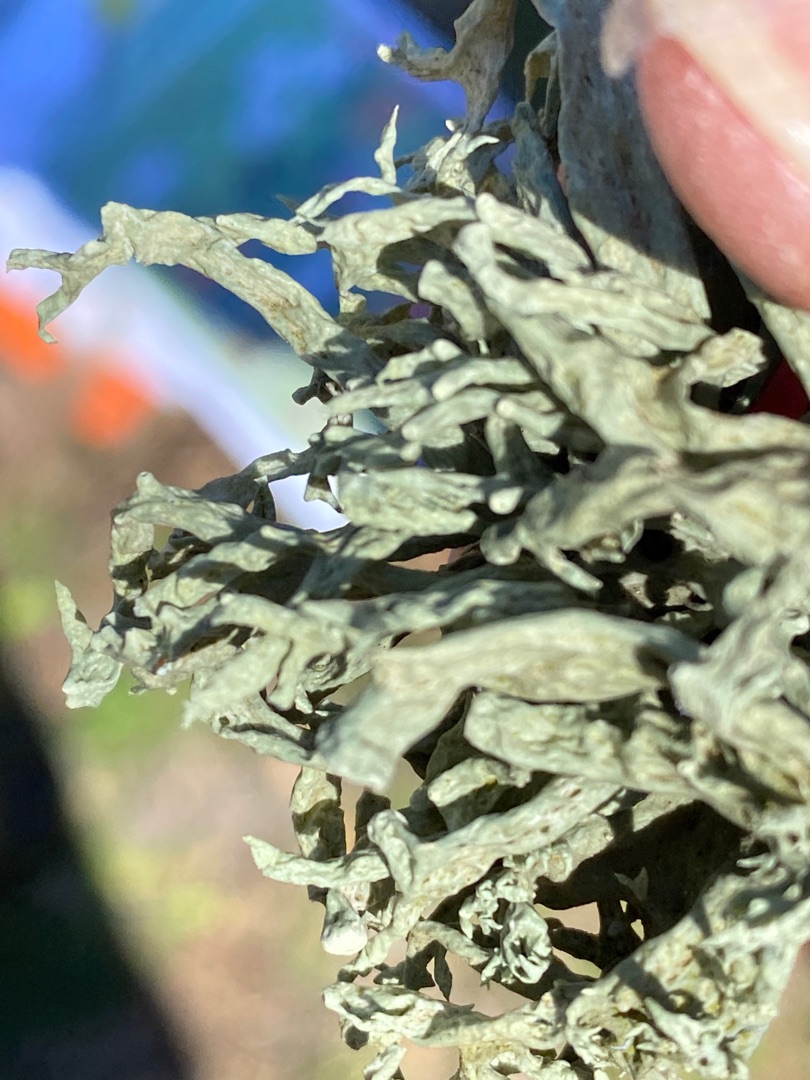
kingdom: Fungi
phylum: Ascomycota
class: Lecanoromycetes
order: Lecanorales
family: Ramalinaceae
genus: Ramalina
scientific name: Ramalina fastigiata
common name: Tue-grenlav
